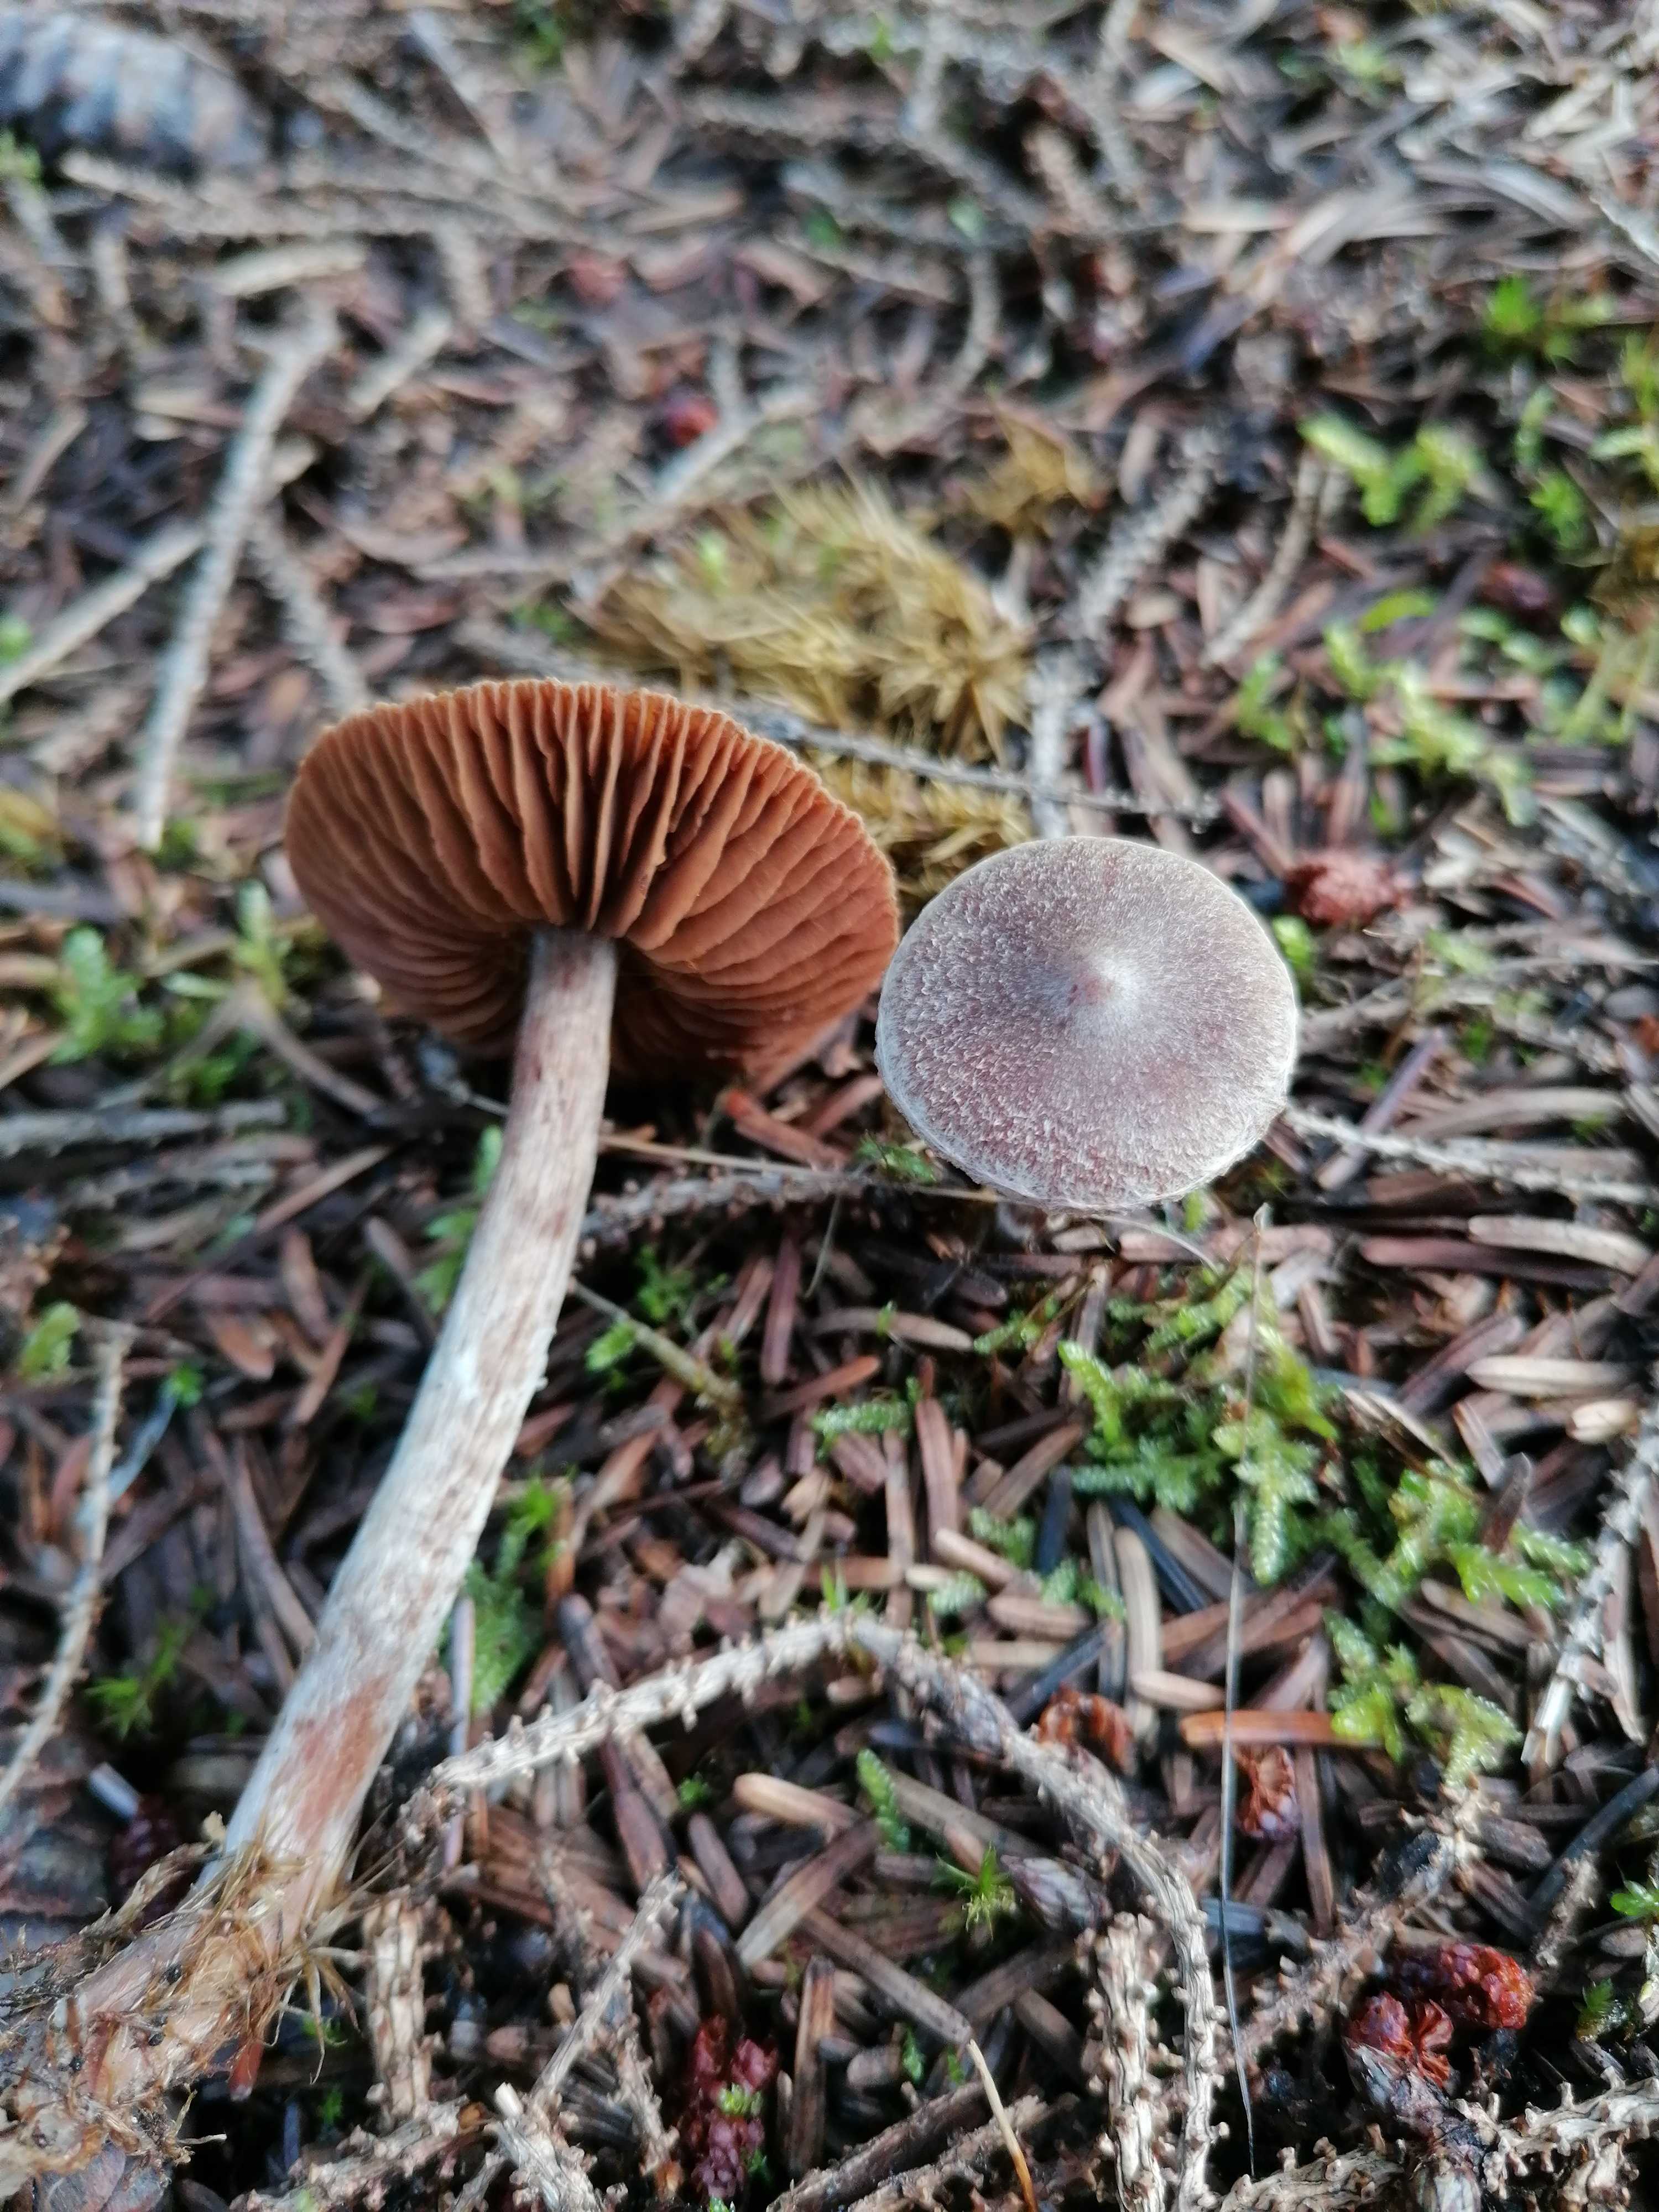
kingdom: Fungi
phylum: Basidiomycota
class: Agaricomycetes
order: Agaricales
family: Cortinariaceae
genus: Cortinarius
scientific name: Cortinarius
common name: pelargonie-slørhat
